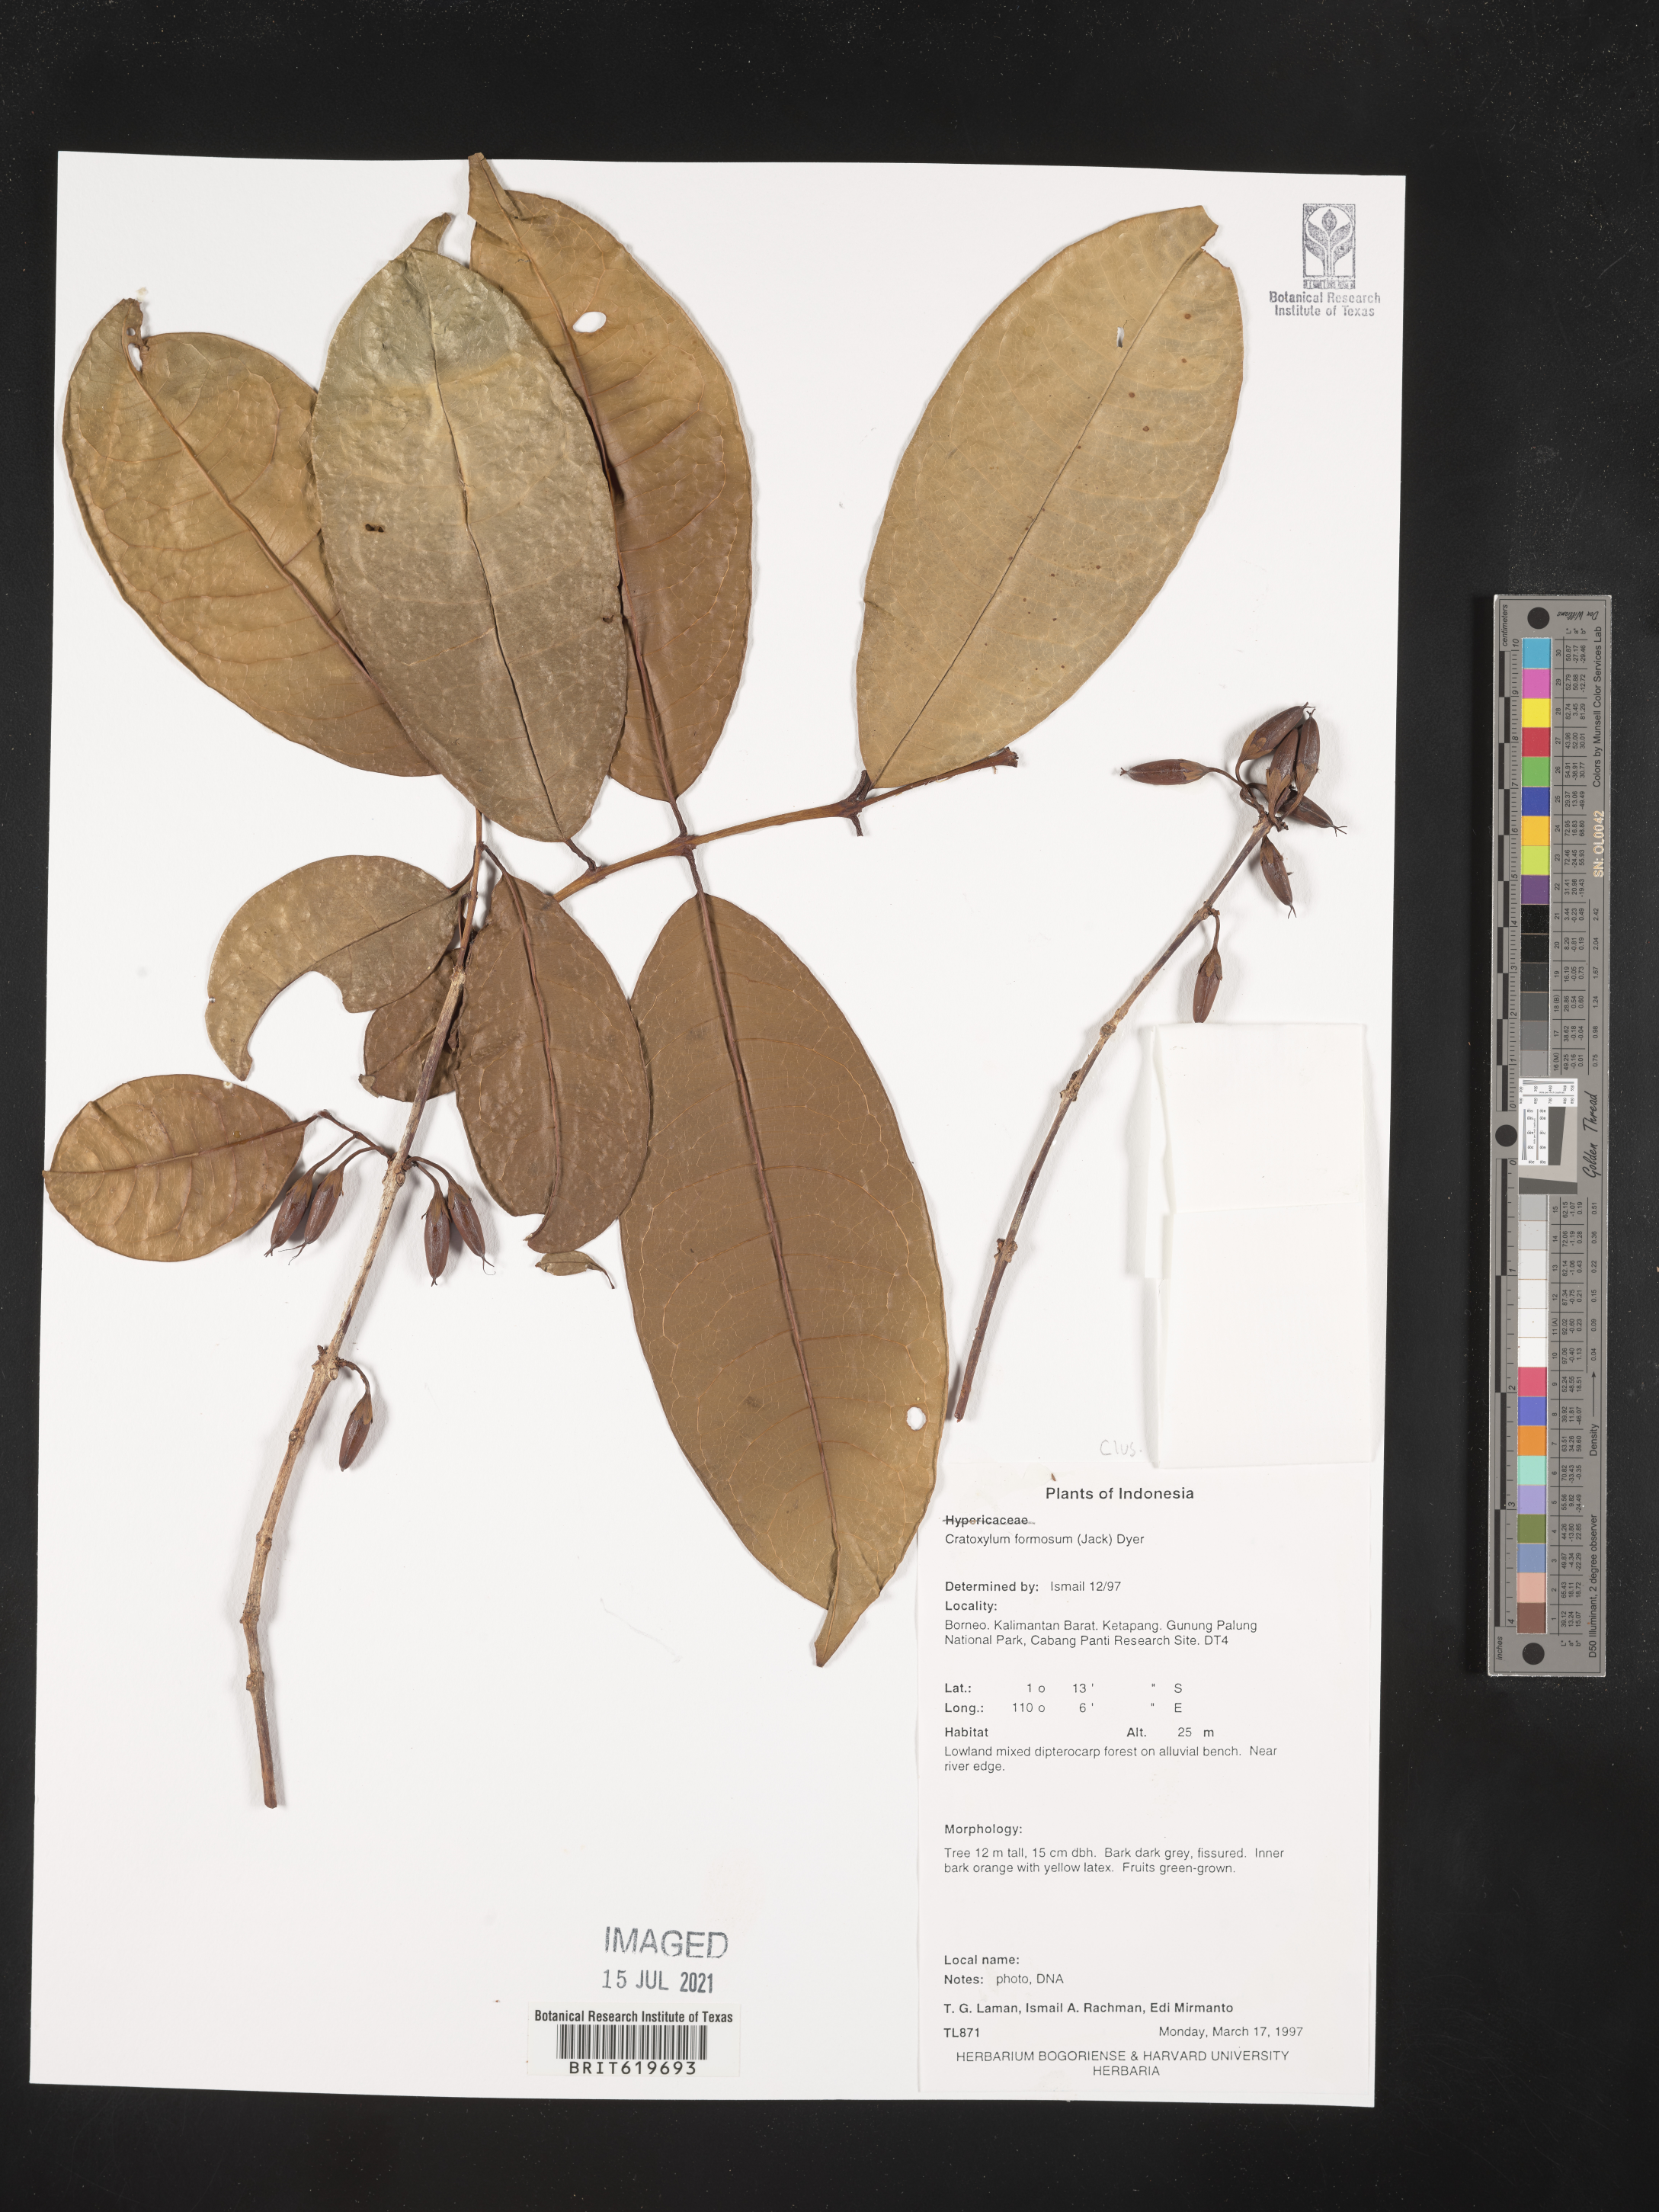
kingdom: Plantae
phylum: Tracheophyta
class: Magnoliopsida
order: Malpighiales
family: Hypericaceae
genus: Cratoxylum
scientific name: Cratoxylum formosum
